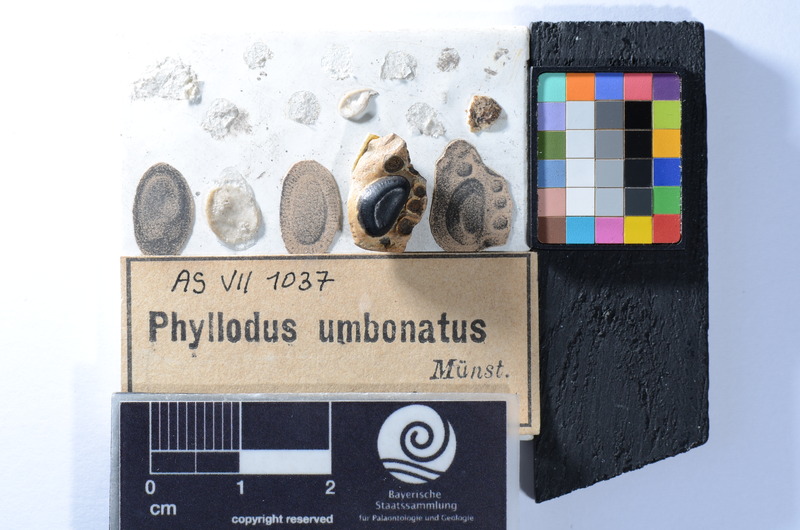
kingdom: Animalia
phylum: Chordata
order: Anguilliformes
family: Phyllodontidae
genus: Phyllodus
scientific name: Phyllodus
